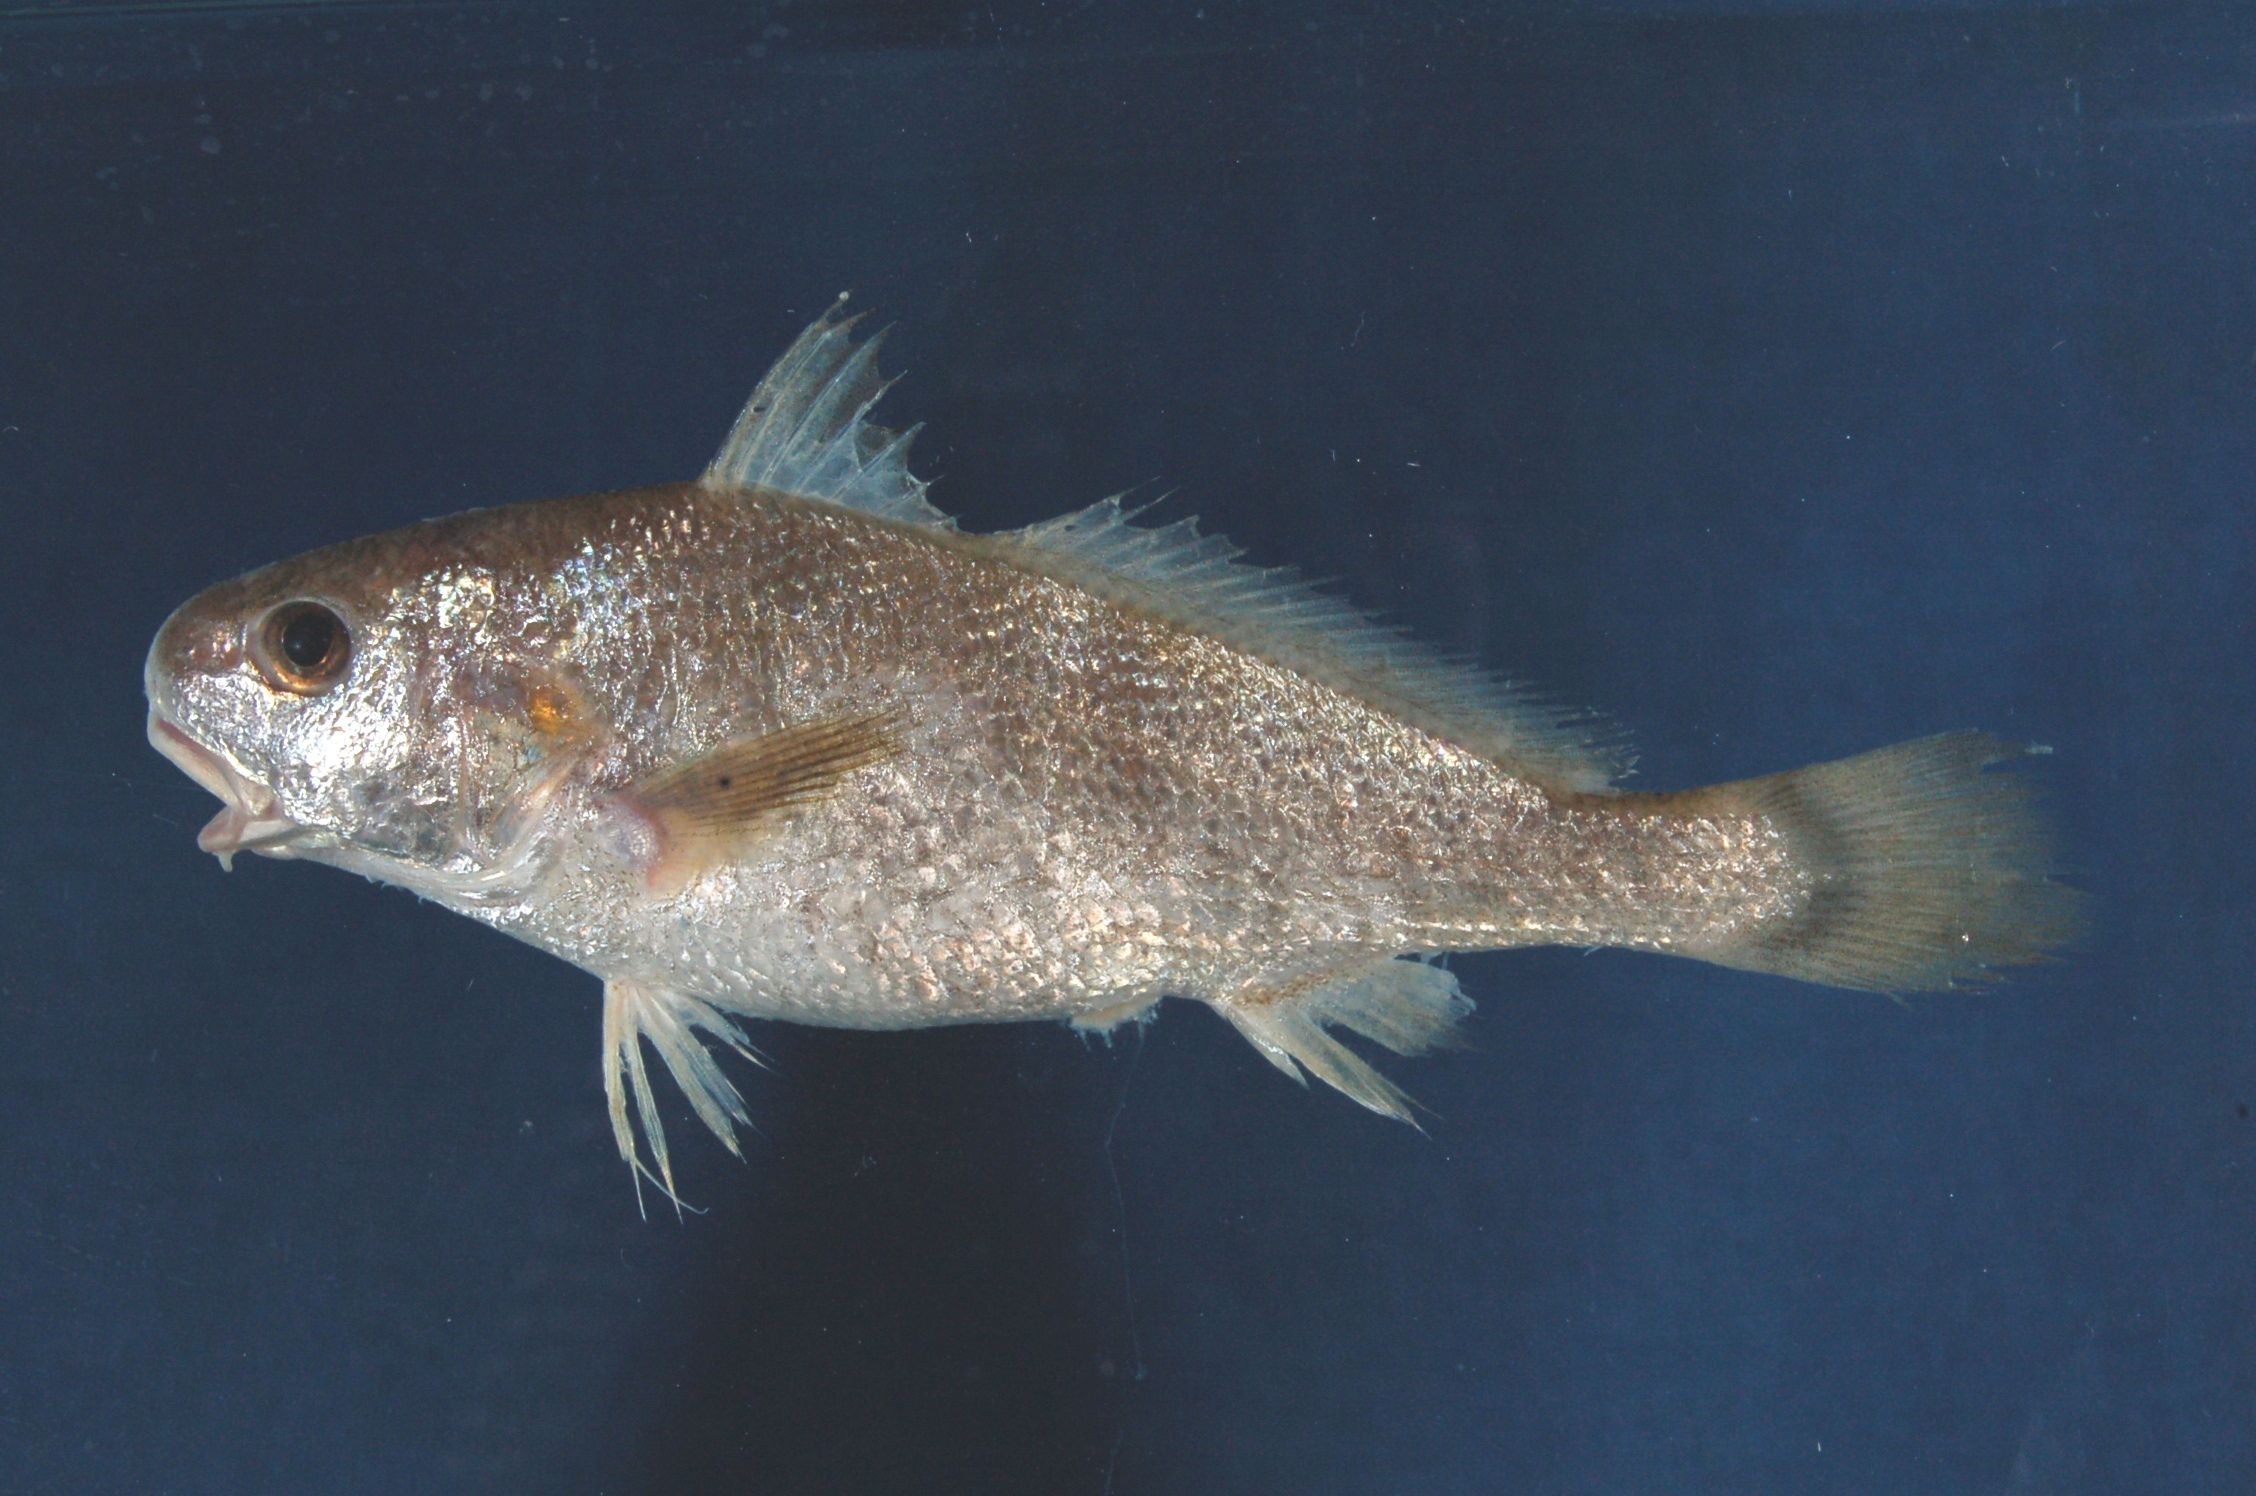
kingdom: Animalia
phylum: Chordata
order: Perciformes
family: Sciaenidae
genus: Johnius
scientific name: Johnius amblycephalus
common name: Bearded croaker
